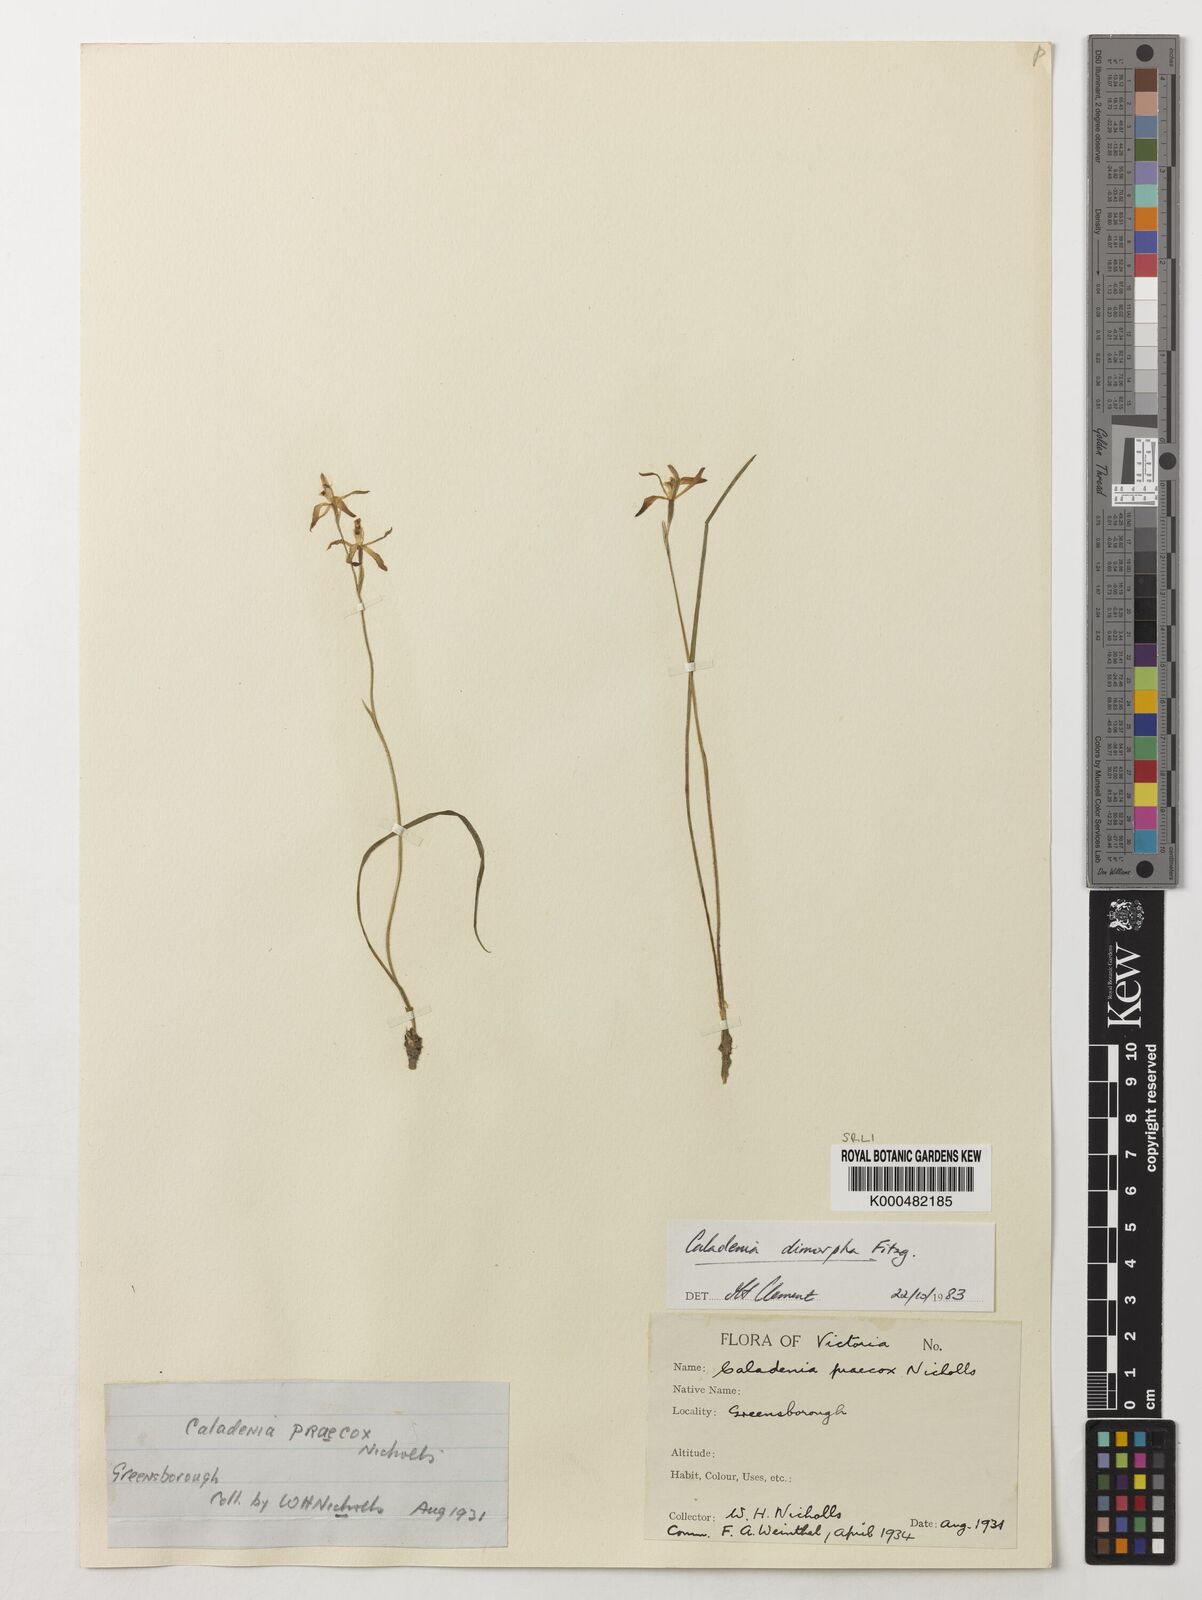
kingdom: Plantae
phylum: Tracheophyta
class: Liliopsida
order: Asparagales
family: Orchidaceae
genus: Caladenia
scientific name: Caladenia
